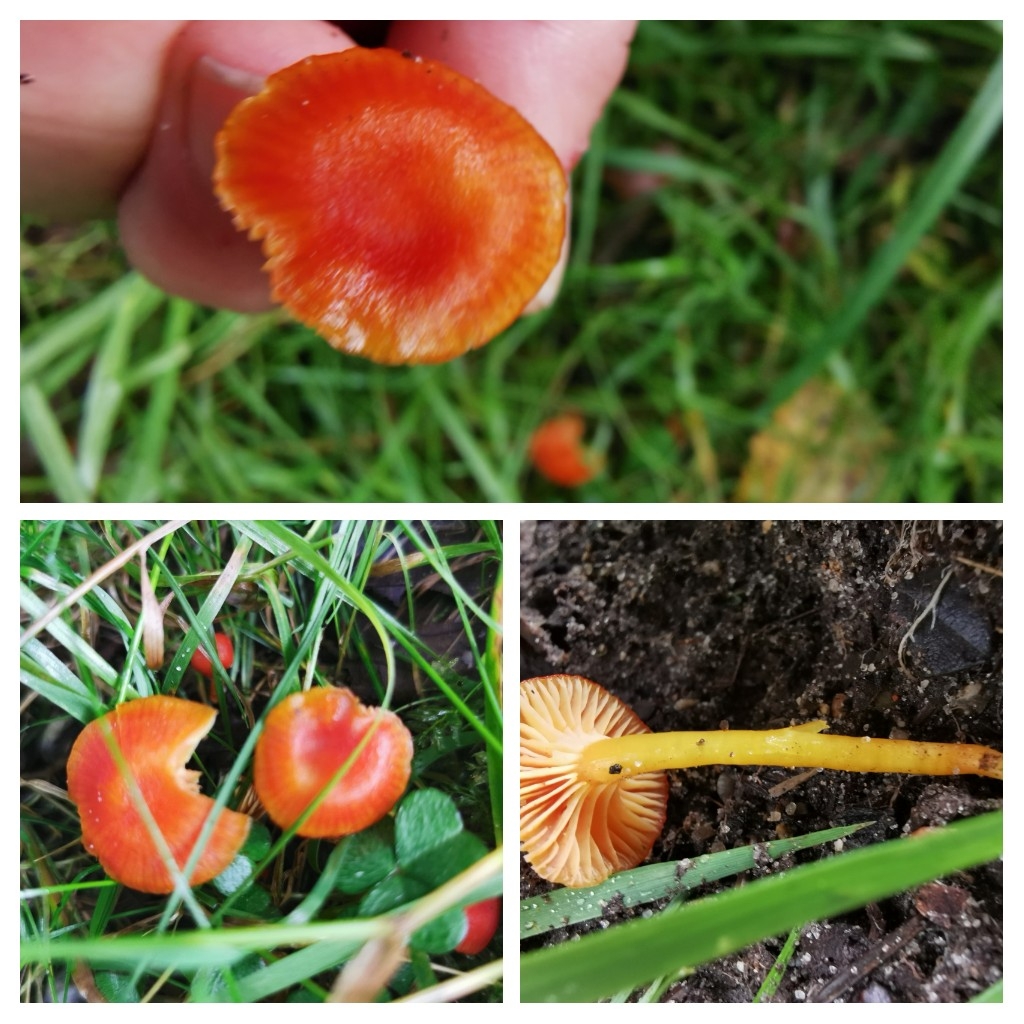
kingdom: Fungi
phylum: Basidiomycota
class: Agaricomycetes
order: Agaricales
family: Hygrophoraceae
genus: Hygrocybe
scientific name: Hygrocybe insipida
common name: liden vokshat
